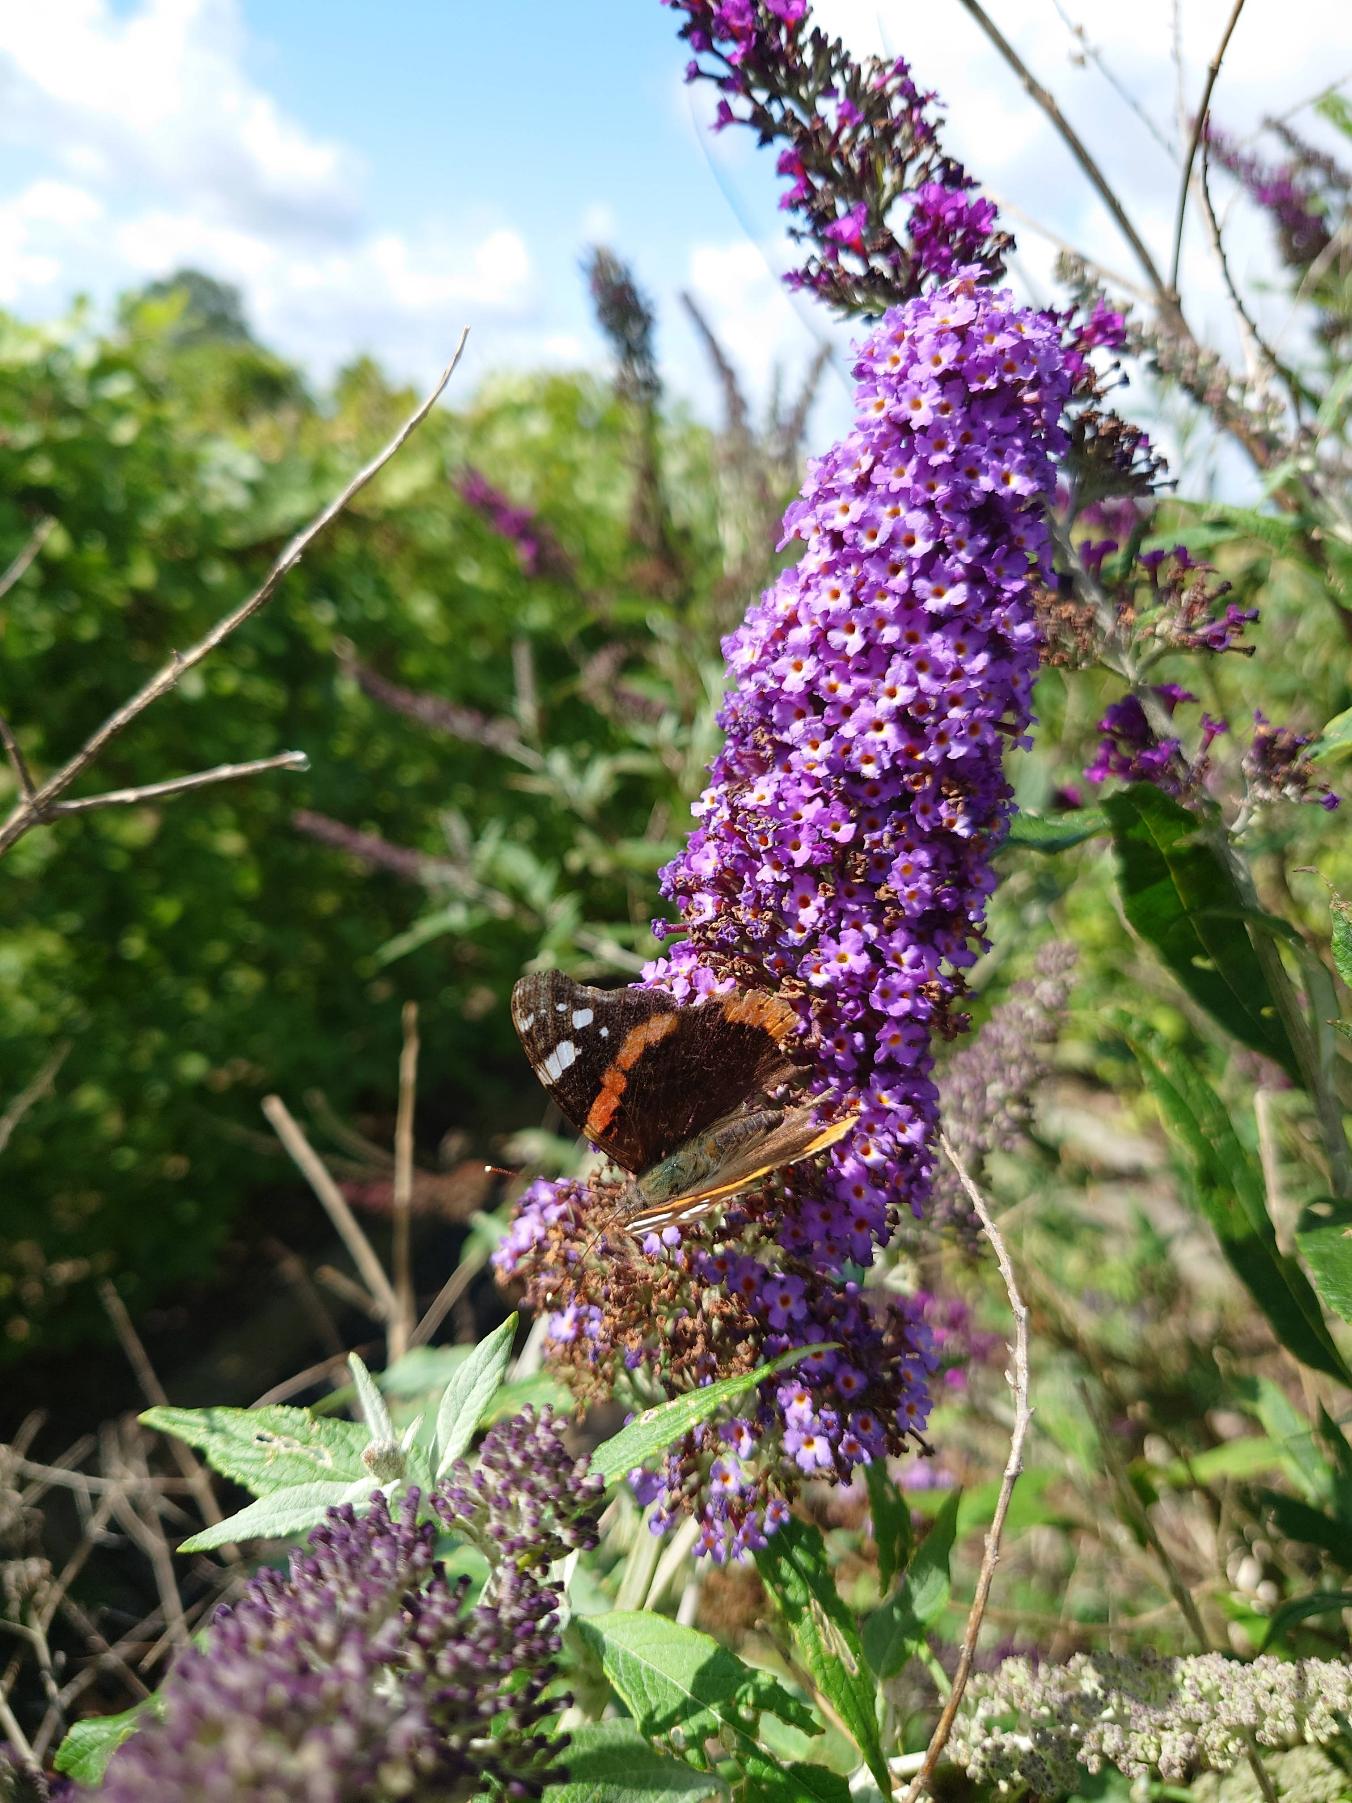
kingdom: Animalia
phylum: Arthropoda
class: Insecta
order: Lepidoptera
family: Nymphalidae
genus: Vanessa
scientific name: Vanessa atalanta
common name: Admiral
